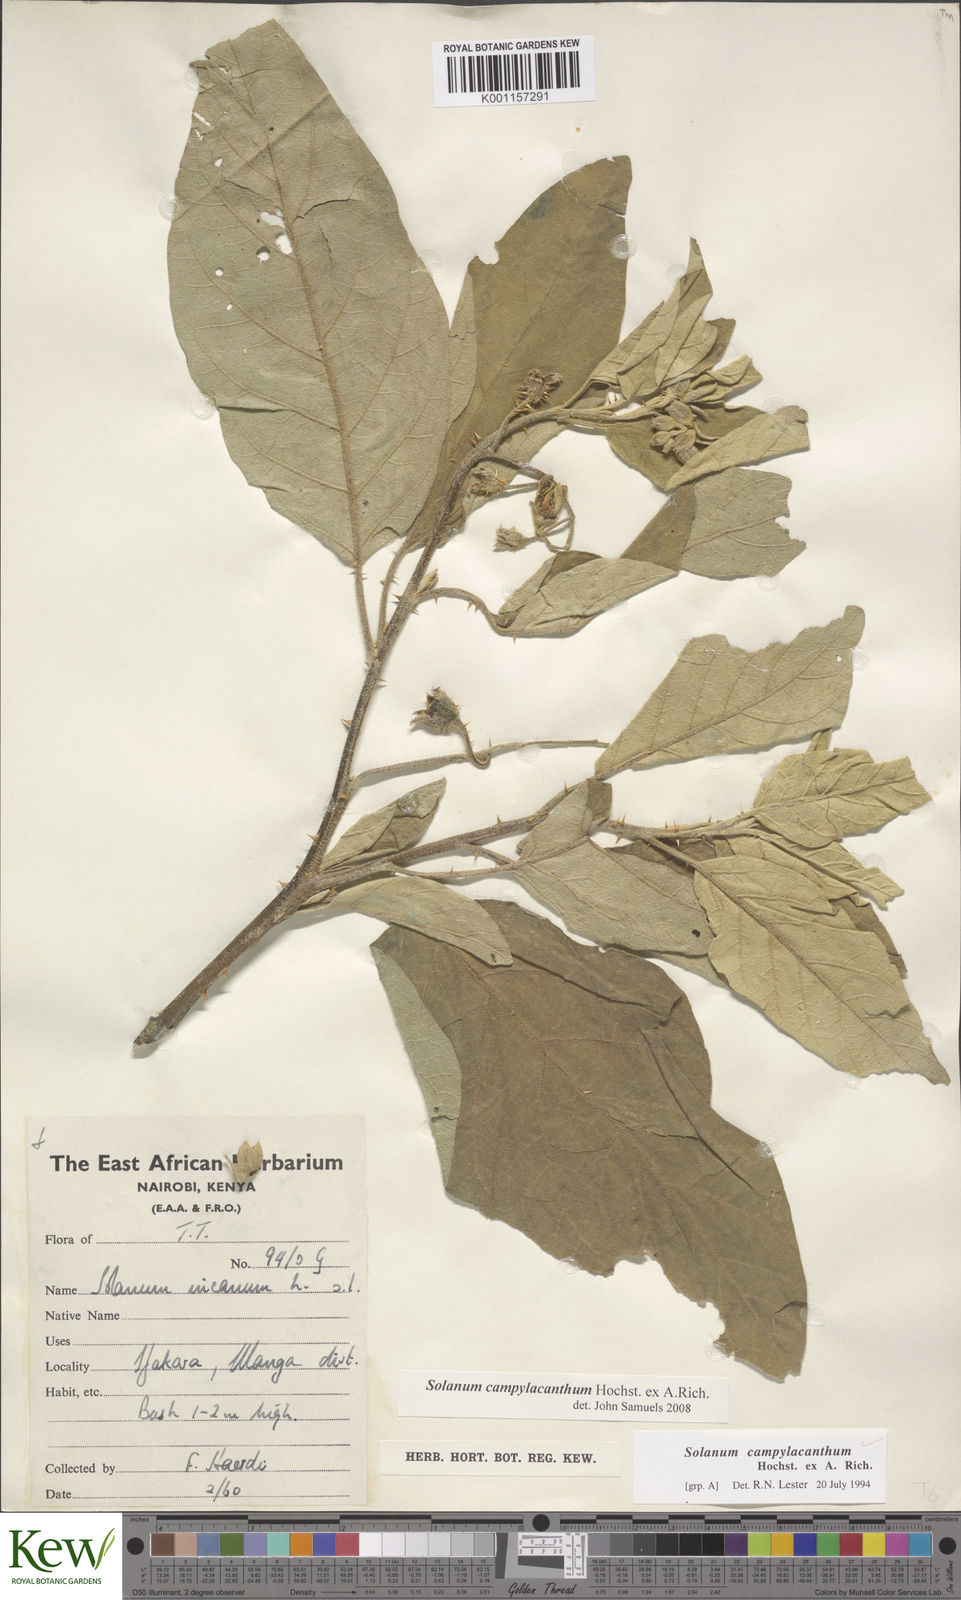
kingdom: Plantae
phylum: Tracheophyta
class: Magnoliopsida
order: Solanales
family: Solanaceae
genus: Solanum
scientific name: Solanum campylacanthum
